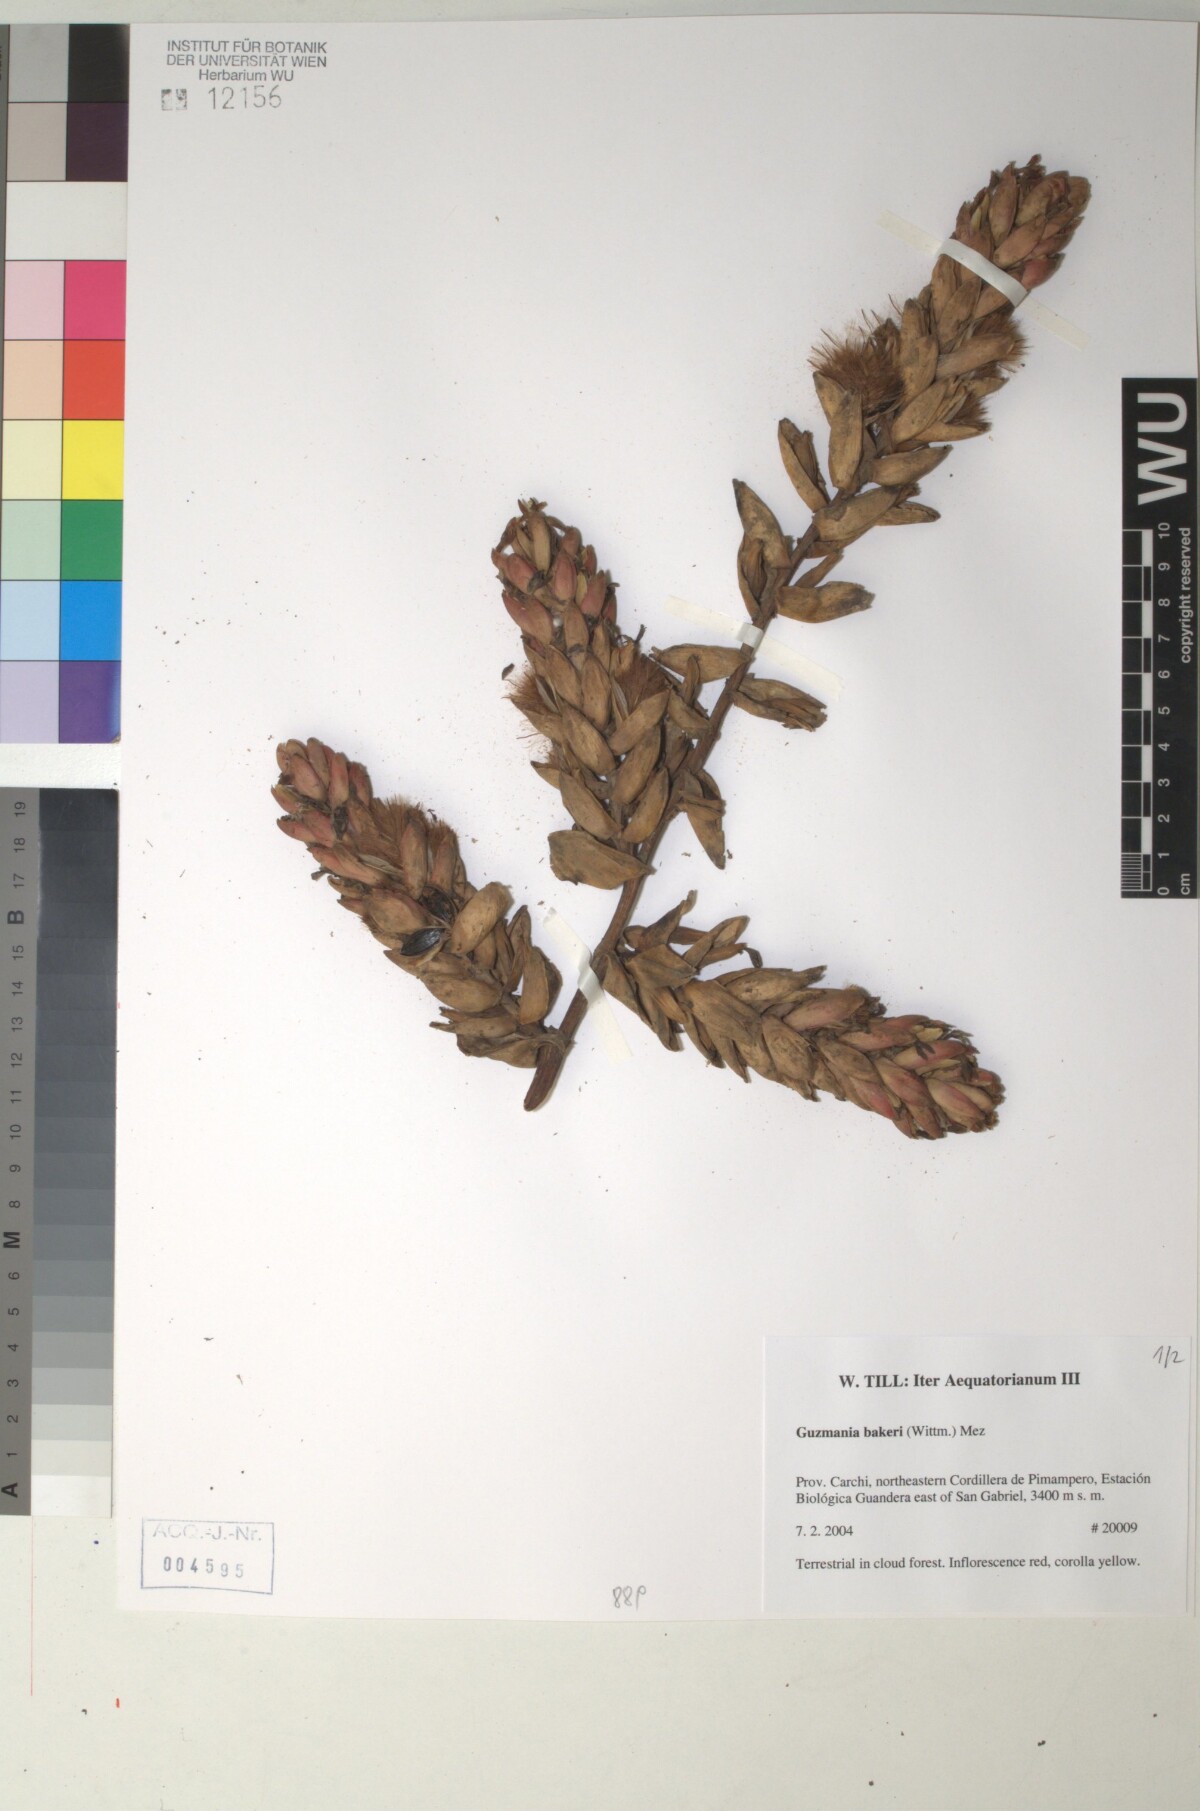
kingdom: Plantae
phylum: Tracheophyta
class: Liliopsida
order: Poales
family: Bromeliaceae
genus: Guzmania
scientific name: Guzmania bakeri
